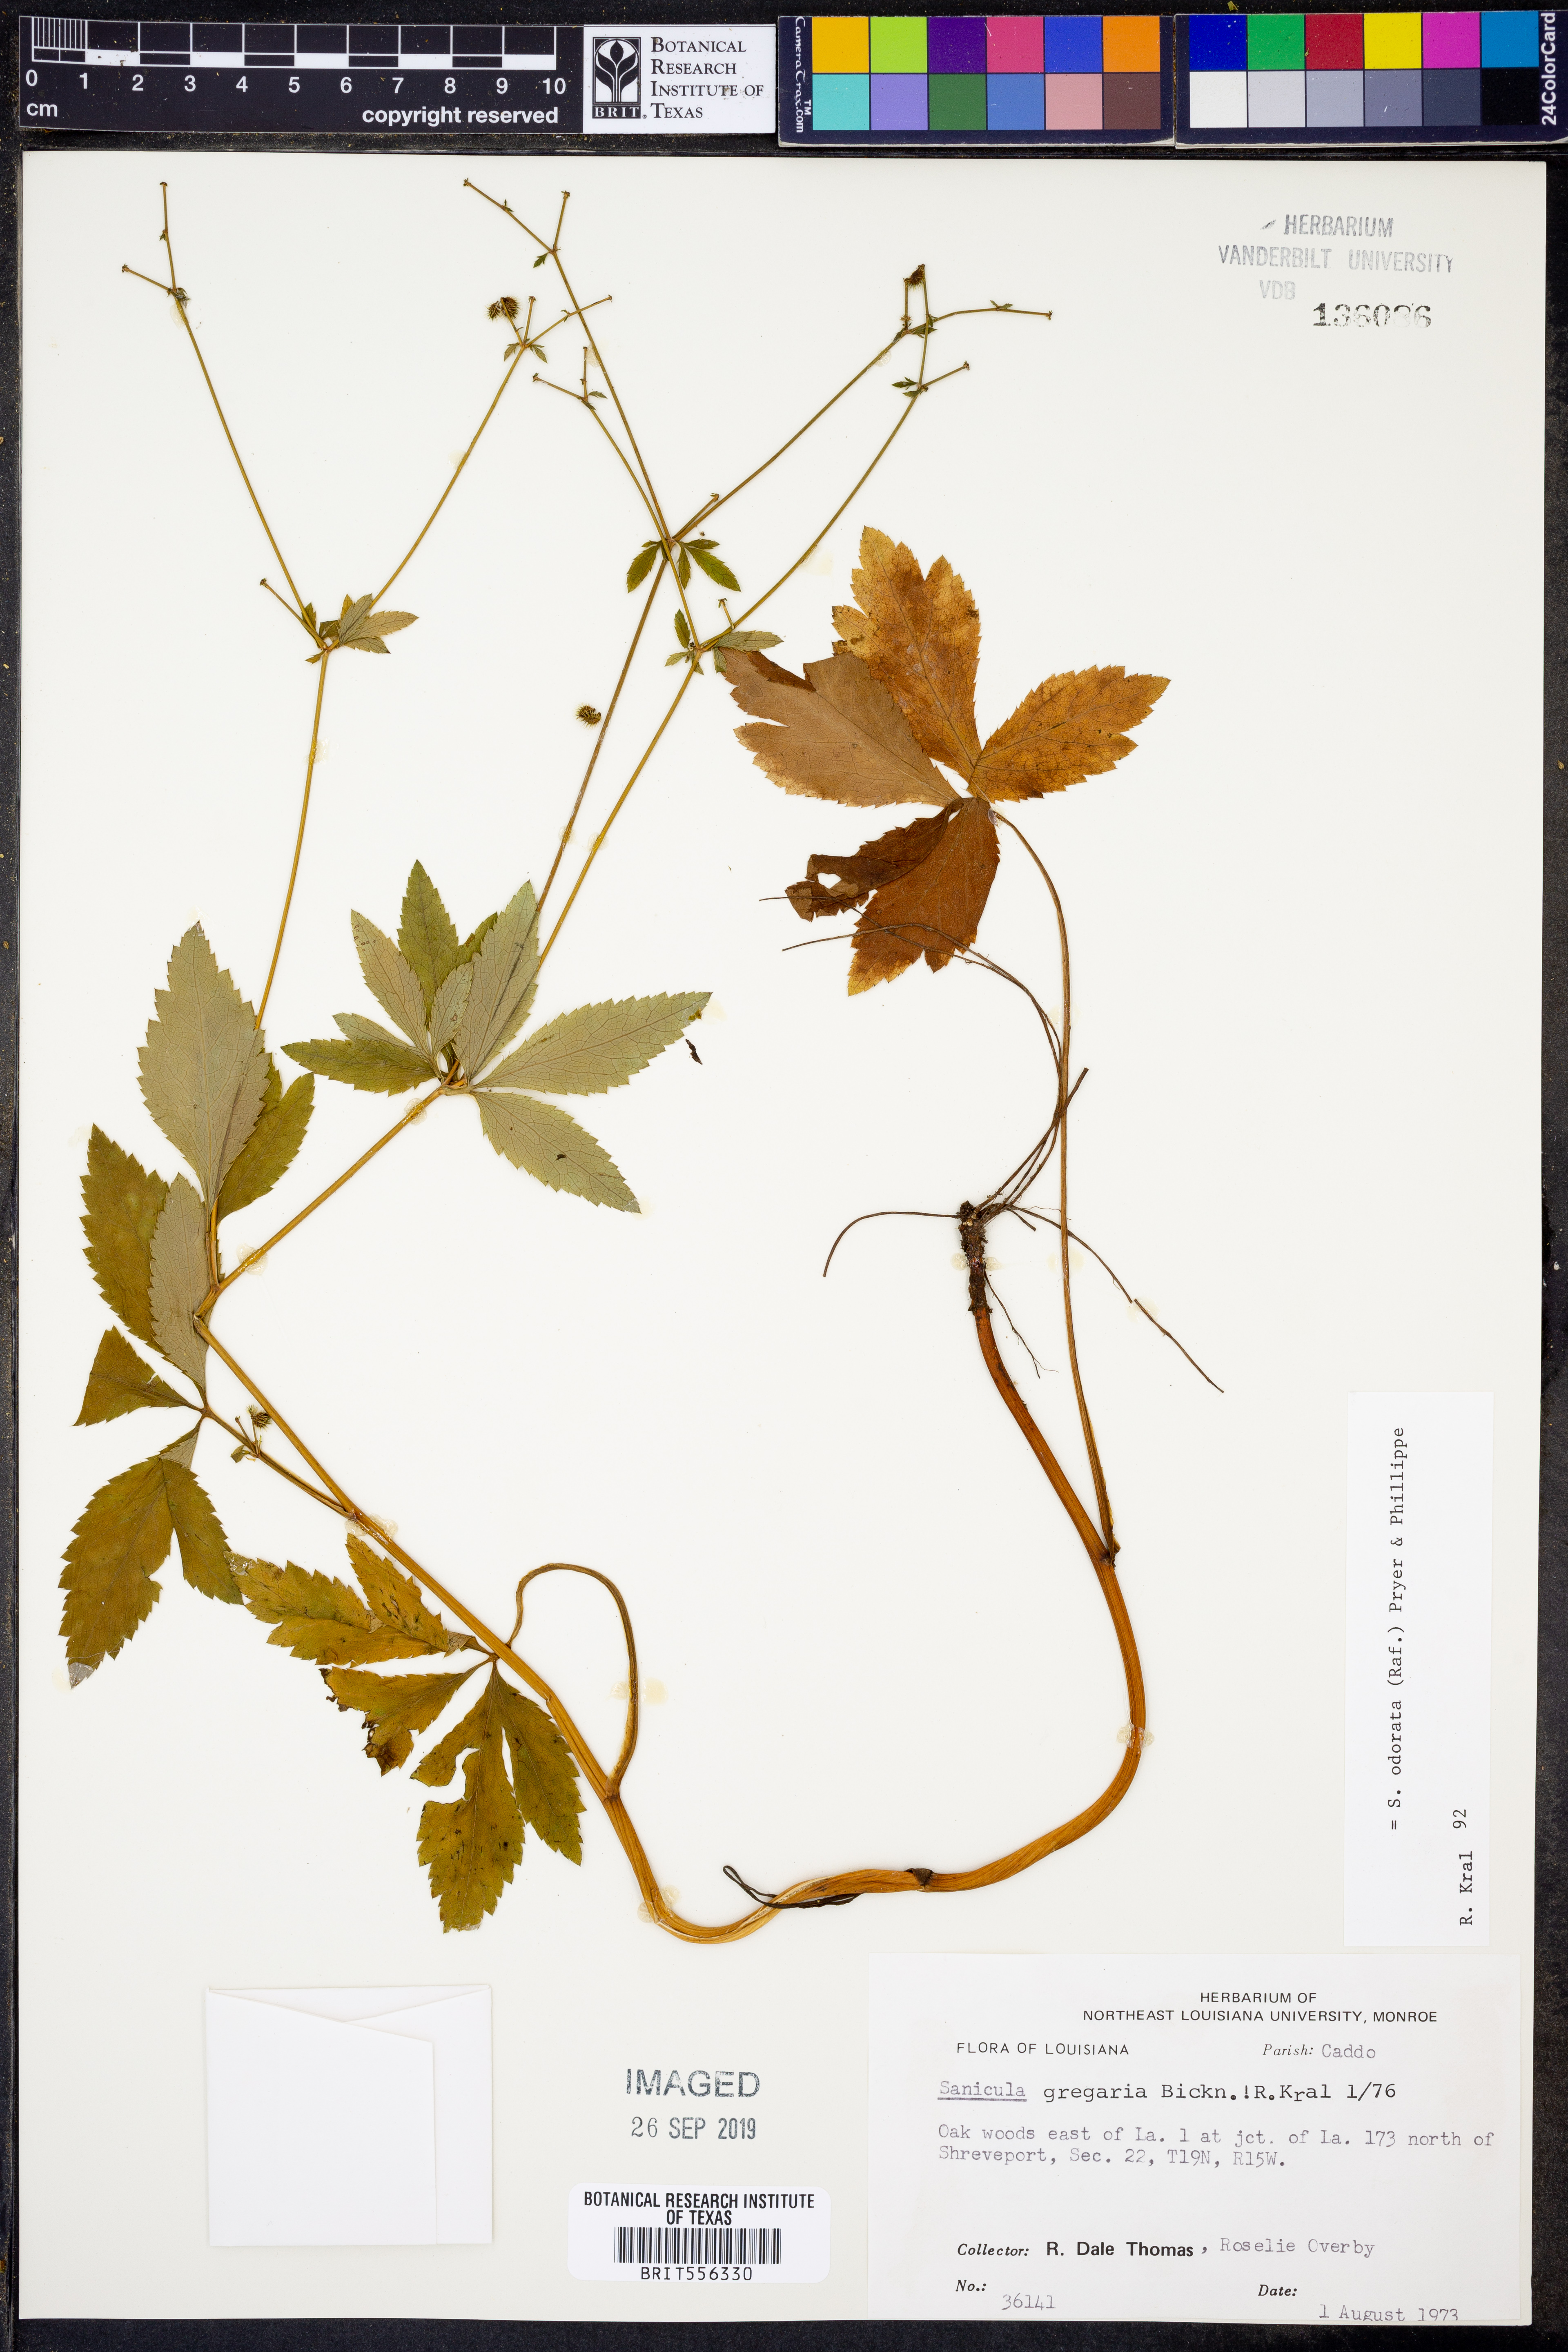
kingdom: Plantae
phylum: Tracheophyta
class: Magnoliopsida
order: Apiales
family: Apiaceae
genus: Sanicula
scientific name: Sanicula odorata
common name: Cluster sanicle
